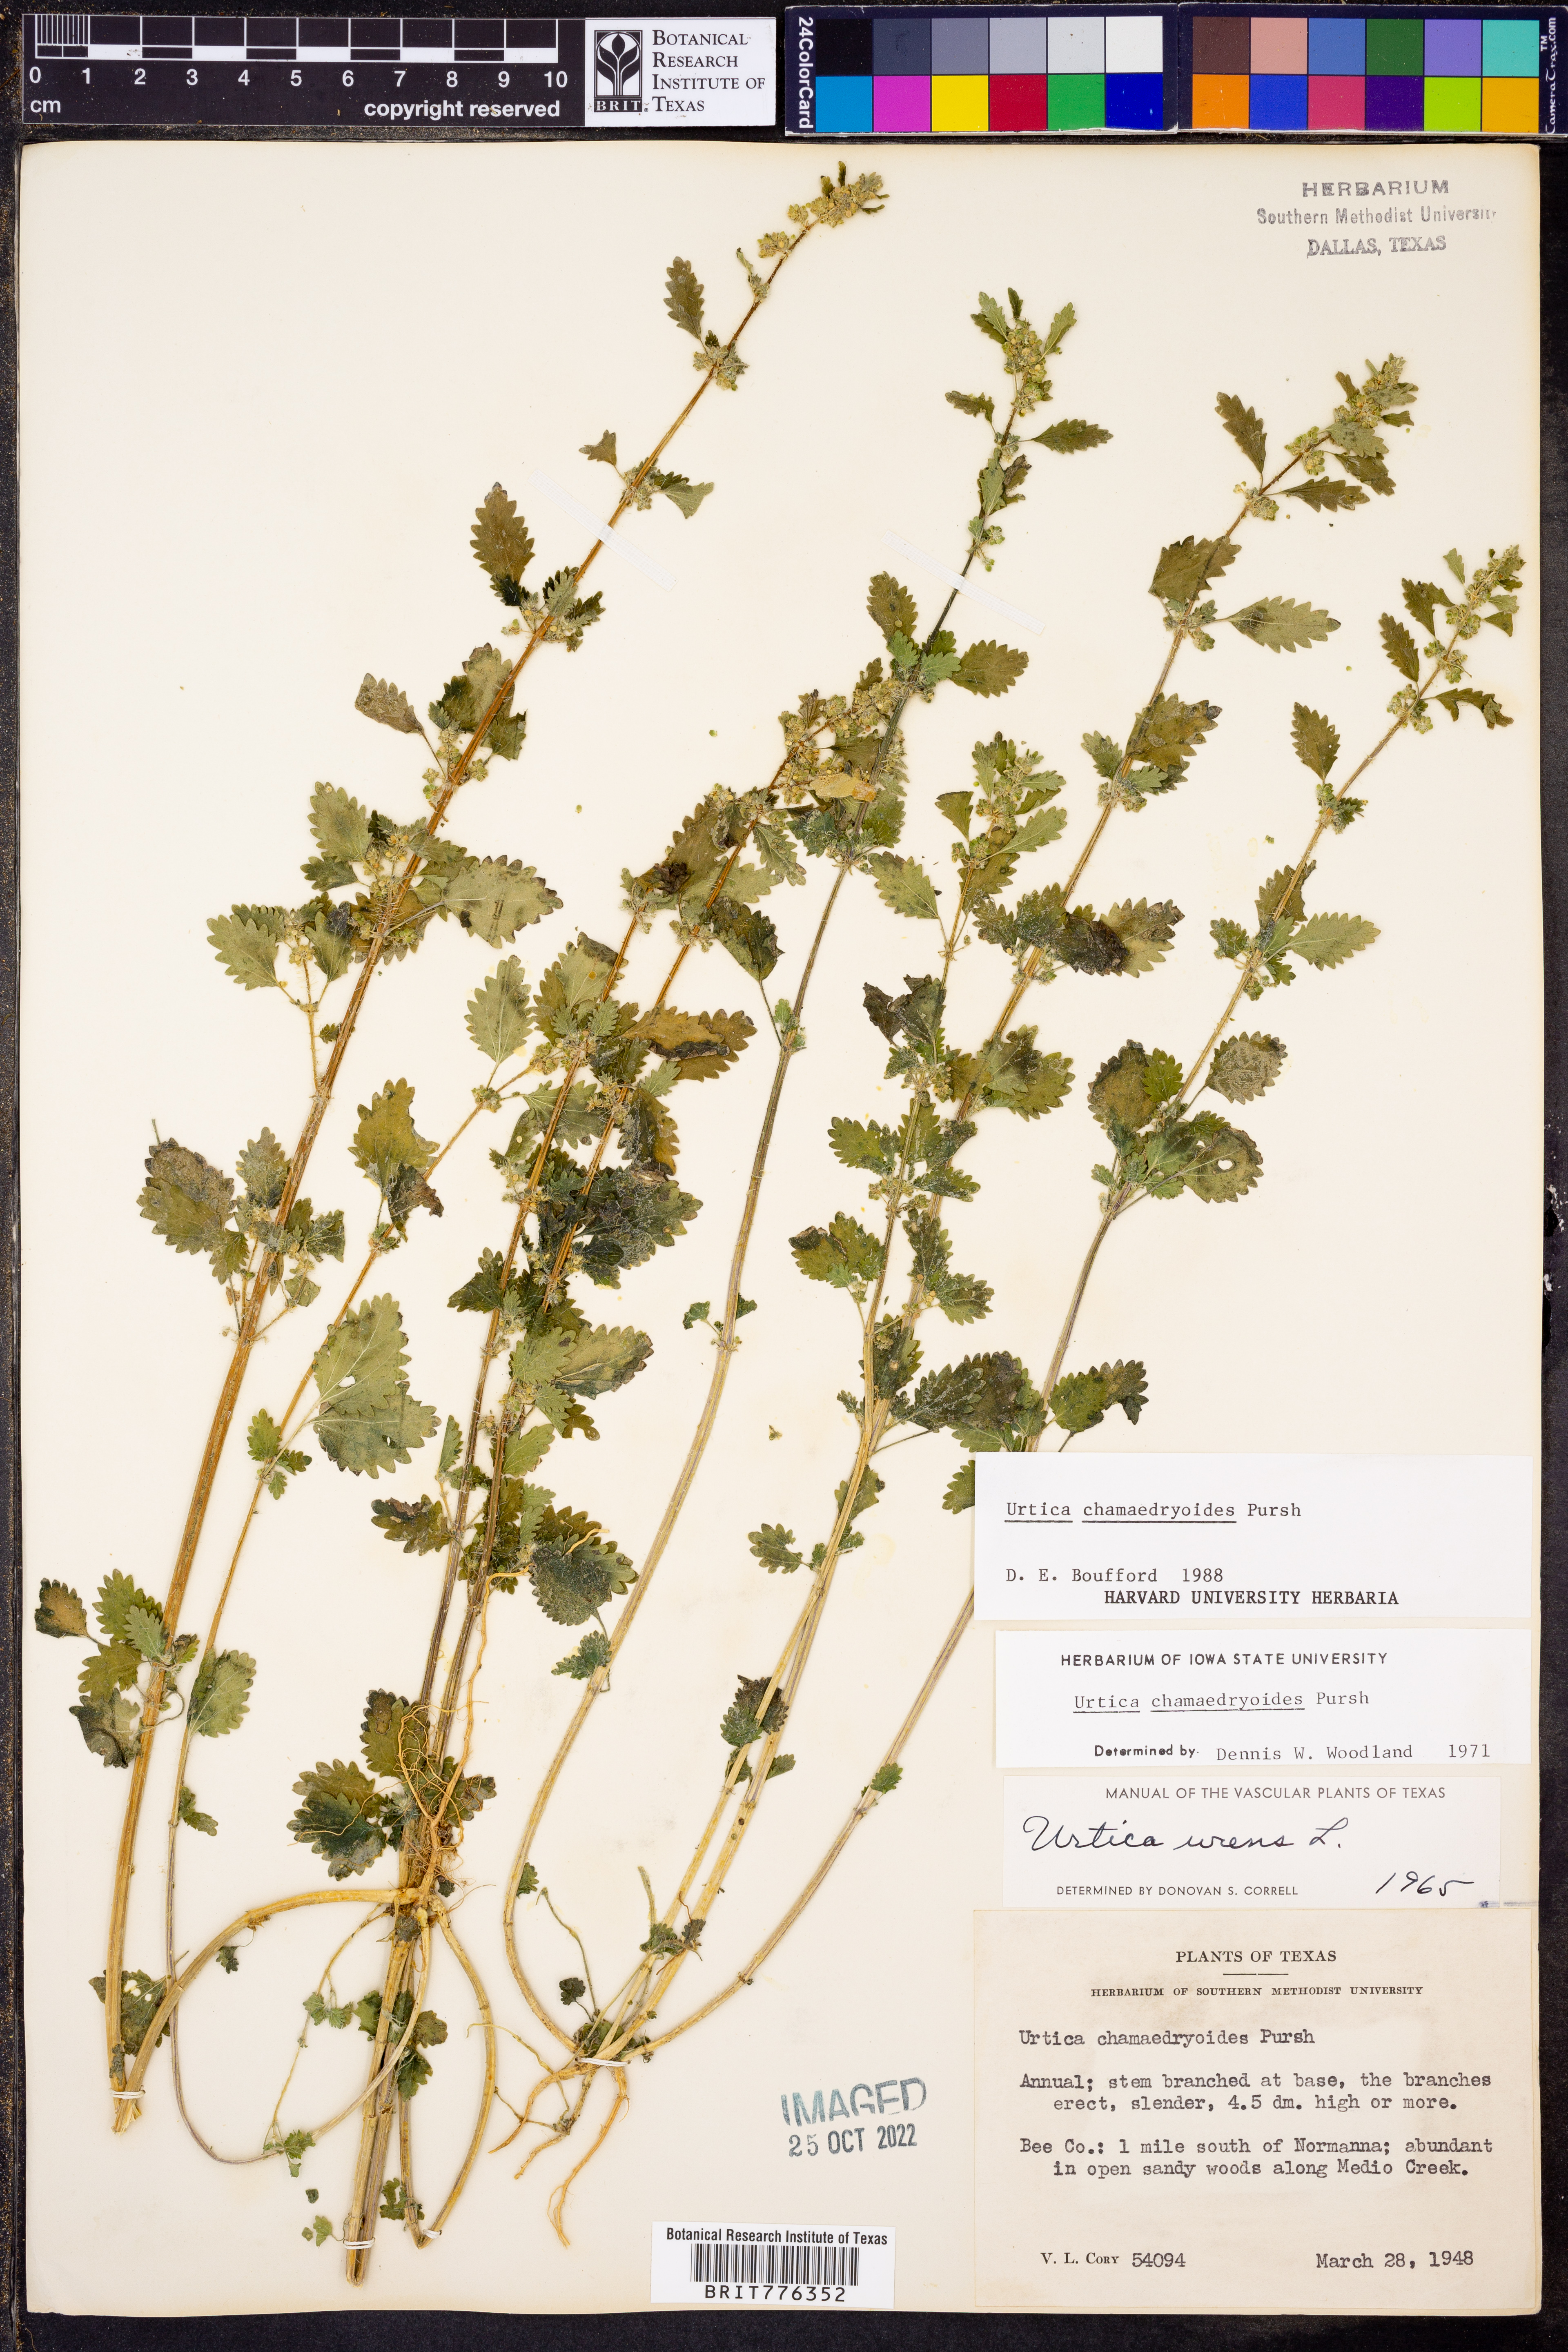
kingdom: Plantae
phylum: Tracheophyta
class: Magnoliopsida
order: Rosales
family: Urticaceae
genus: Urtica
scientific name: Urtica chamaedryoides
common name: Heart-leaf nettle
